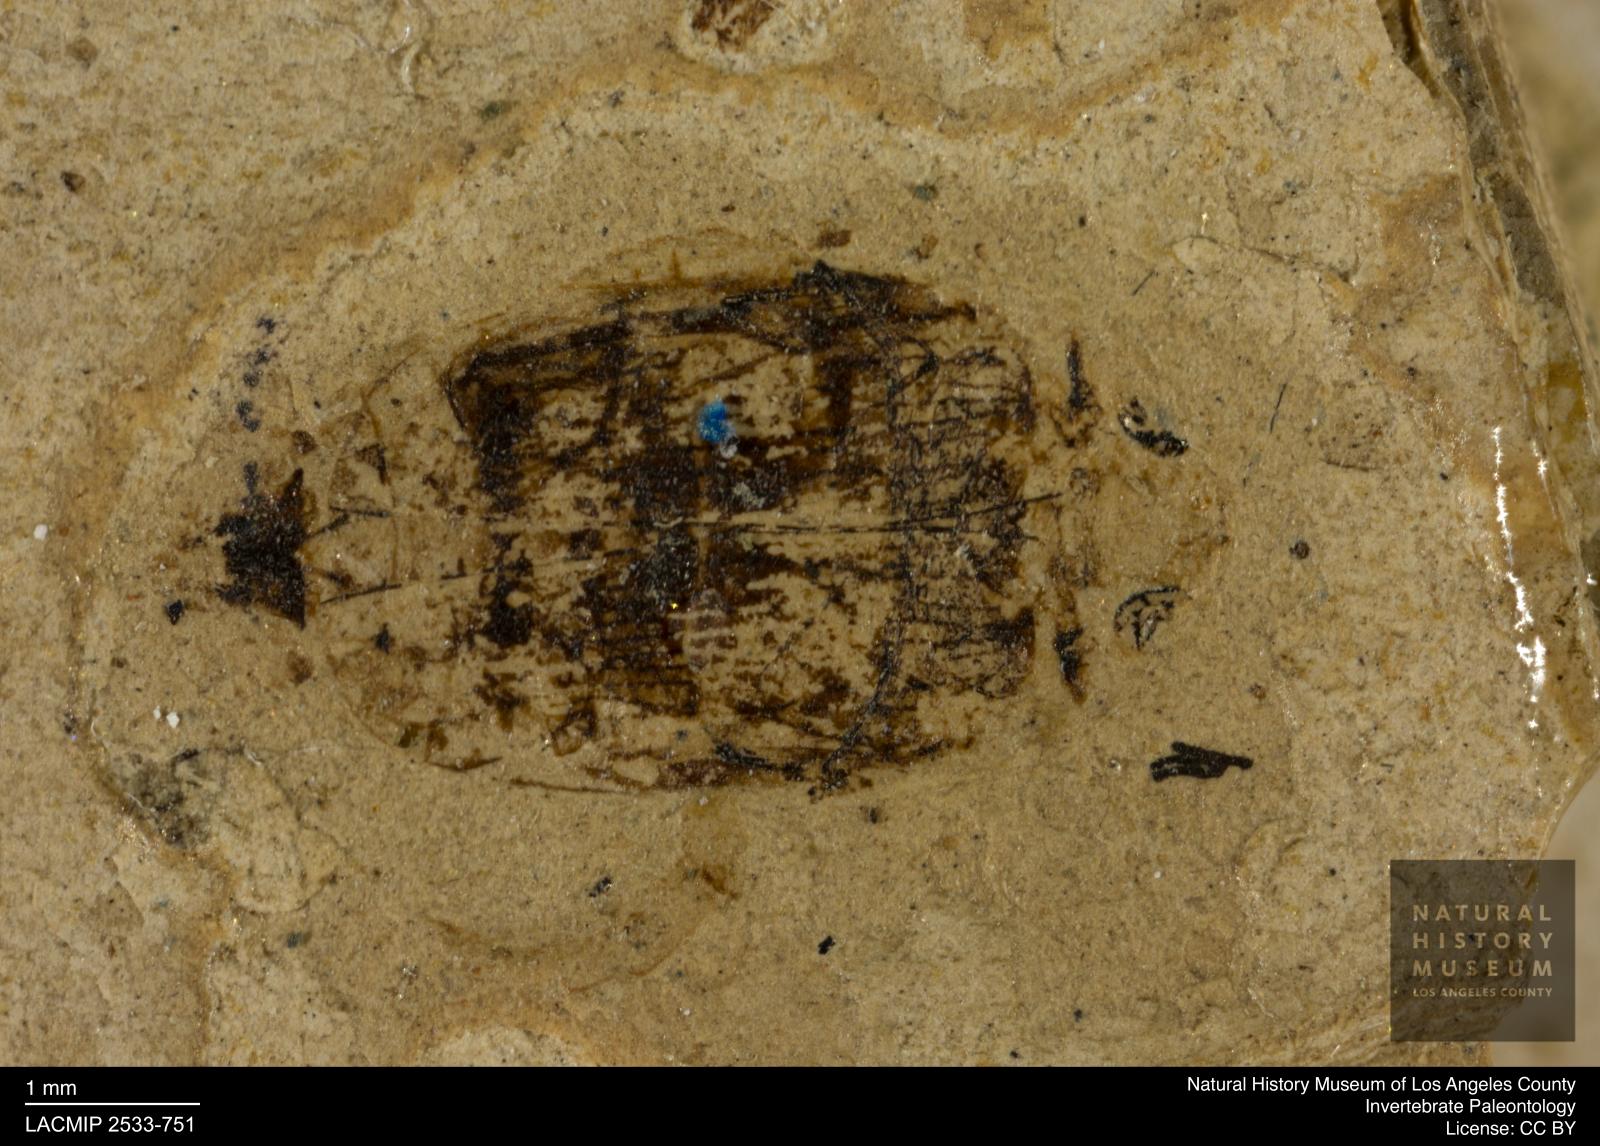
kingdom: Animalia
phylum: Arthropoda
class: Insecta
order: Coleoptera
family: Dytiscidae
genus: Laccophilus
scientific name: Laccophilus Palaeogyrinus strigatus
